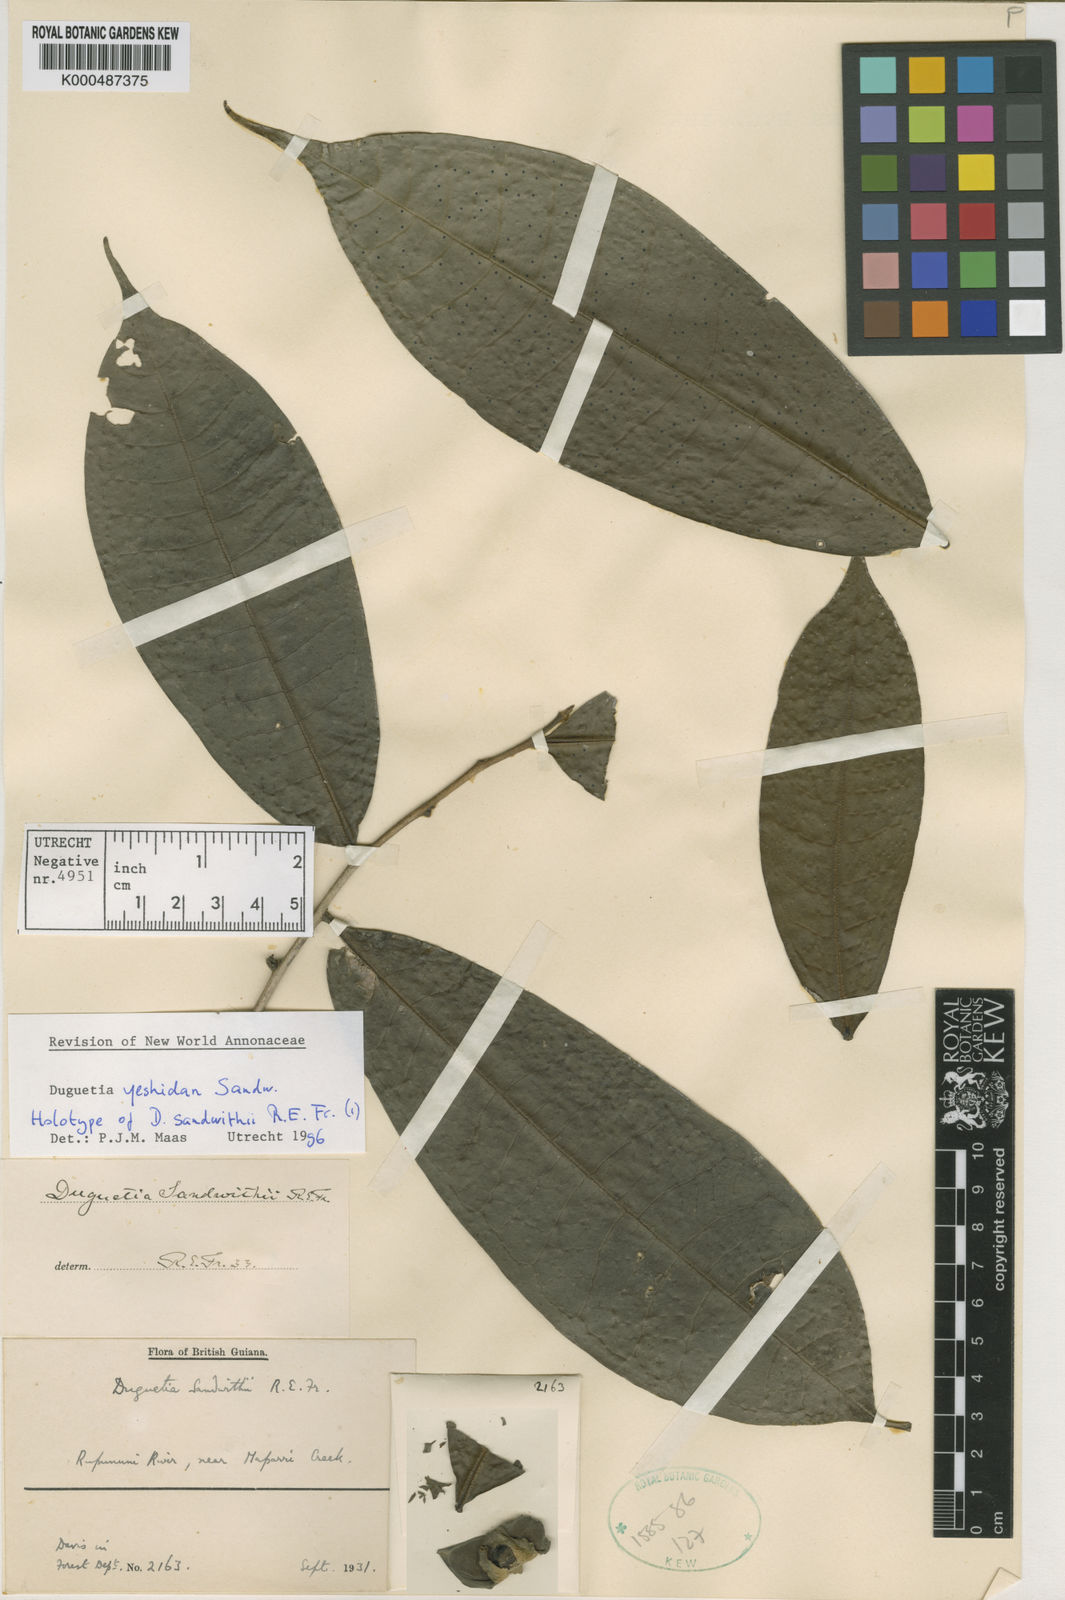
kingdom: Plantae
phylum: Tracheophyta
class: Magnoliopsida
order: Magnoliales
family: Annonaceae
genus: Duguetia
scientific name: Duguetia yeshidan
